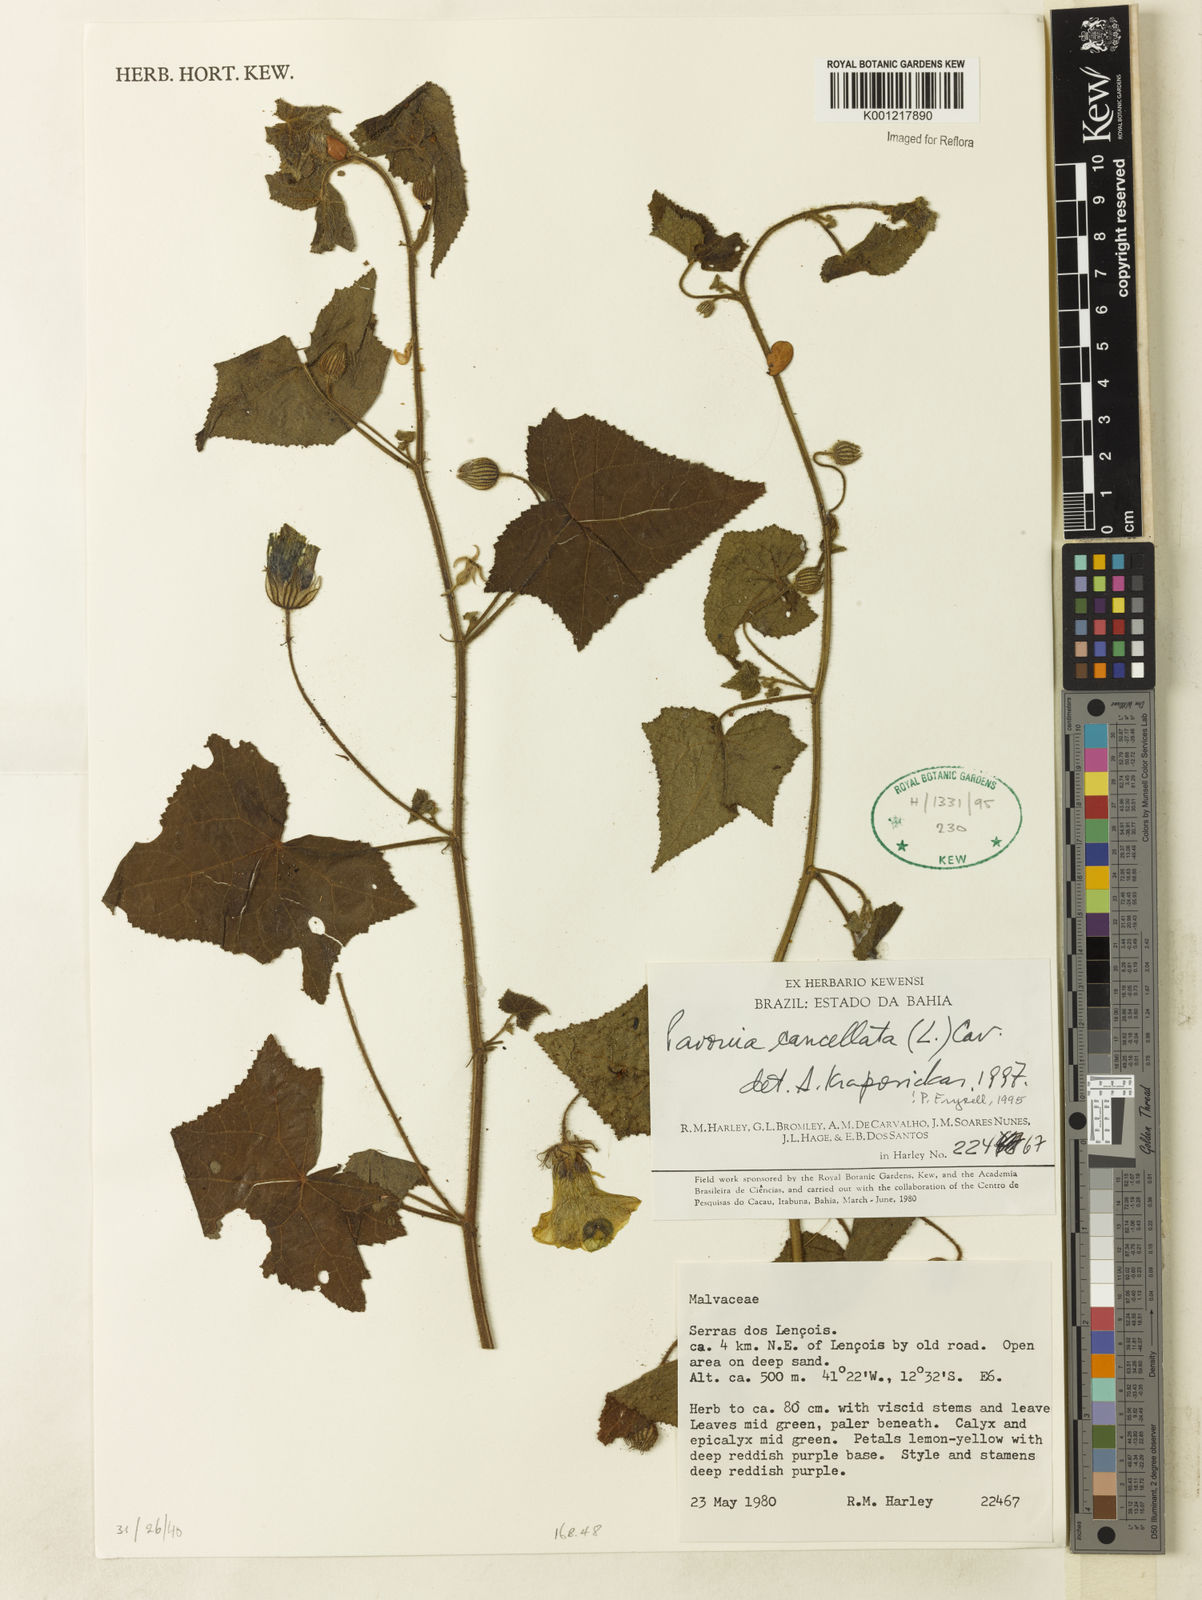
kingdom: Plantae
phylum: Tracheophyta
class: Magnoliopsida
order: Malvales
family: Malvaceae
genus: Pavonia
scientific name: Pavonia cancellata
